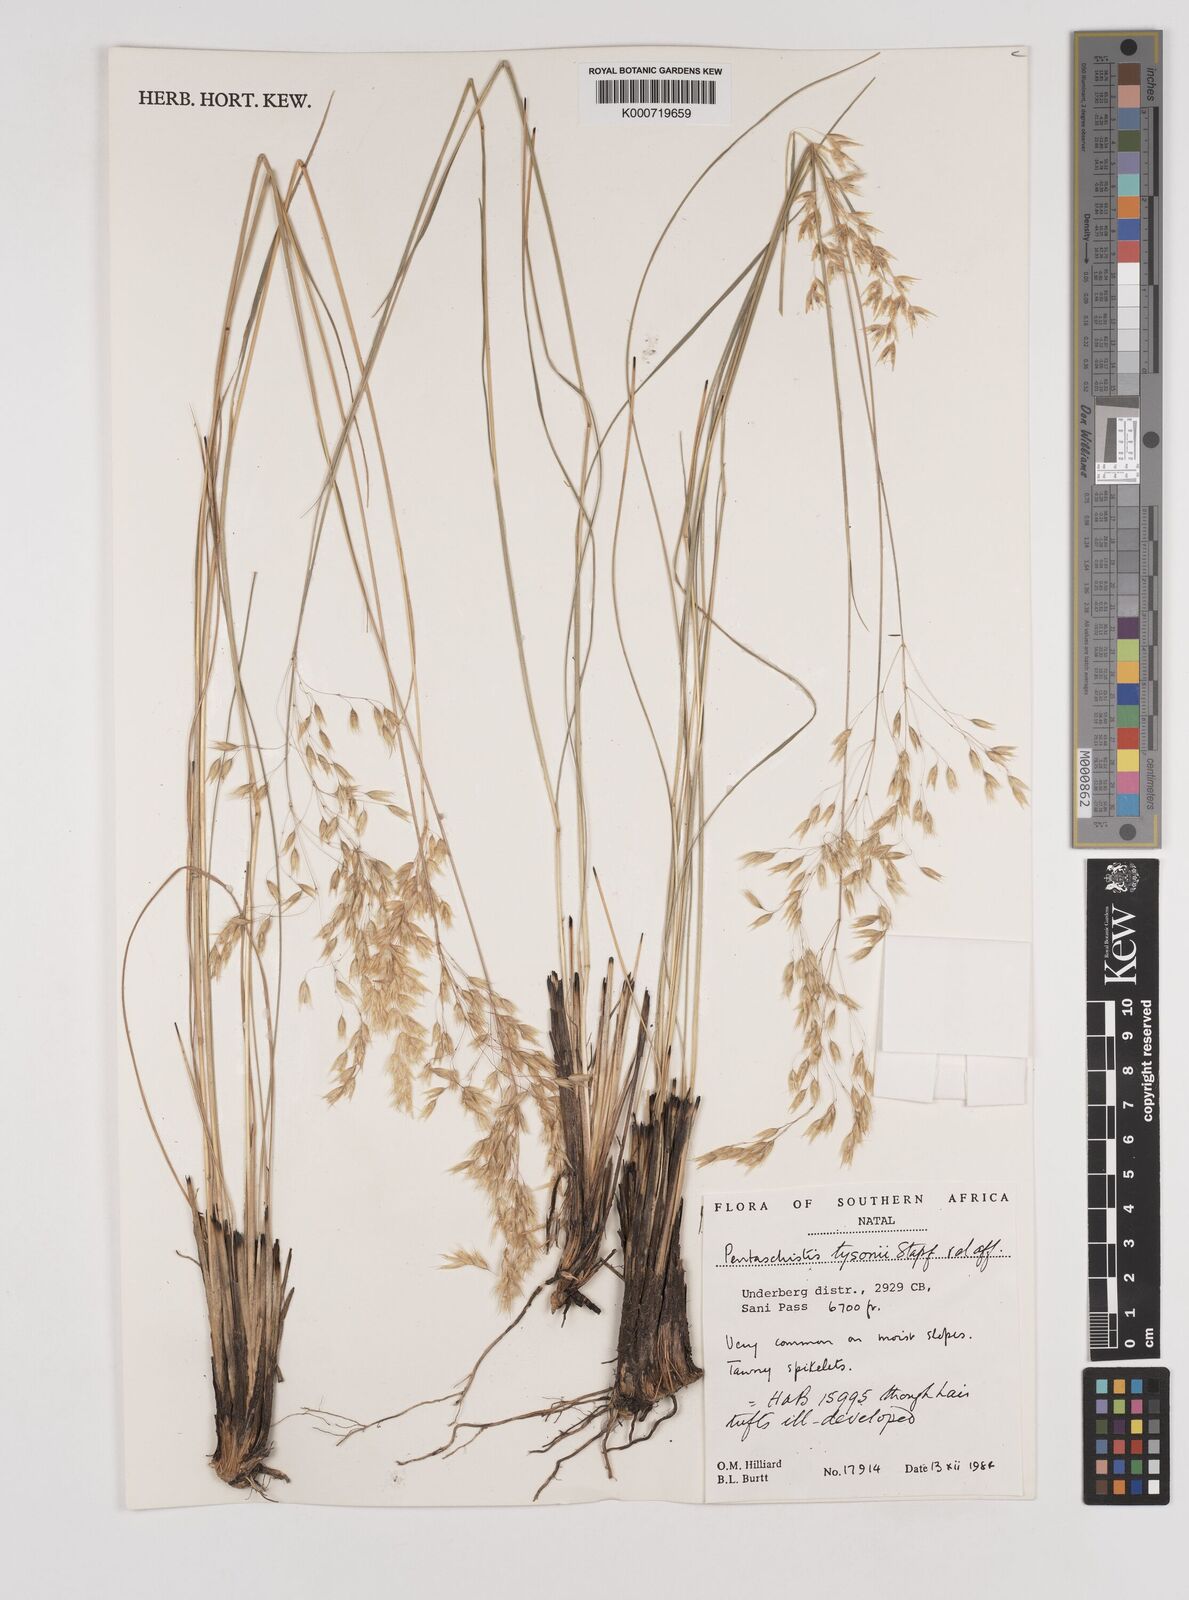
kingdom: Plantae
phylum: Tracheophyta
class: Liliopsida
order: Poales
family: Poaceae
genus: Pentameris
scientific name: Pentameris tysonii
